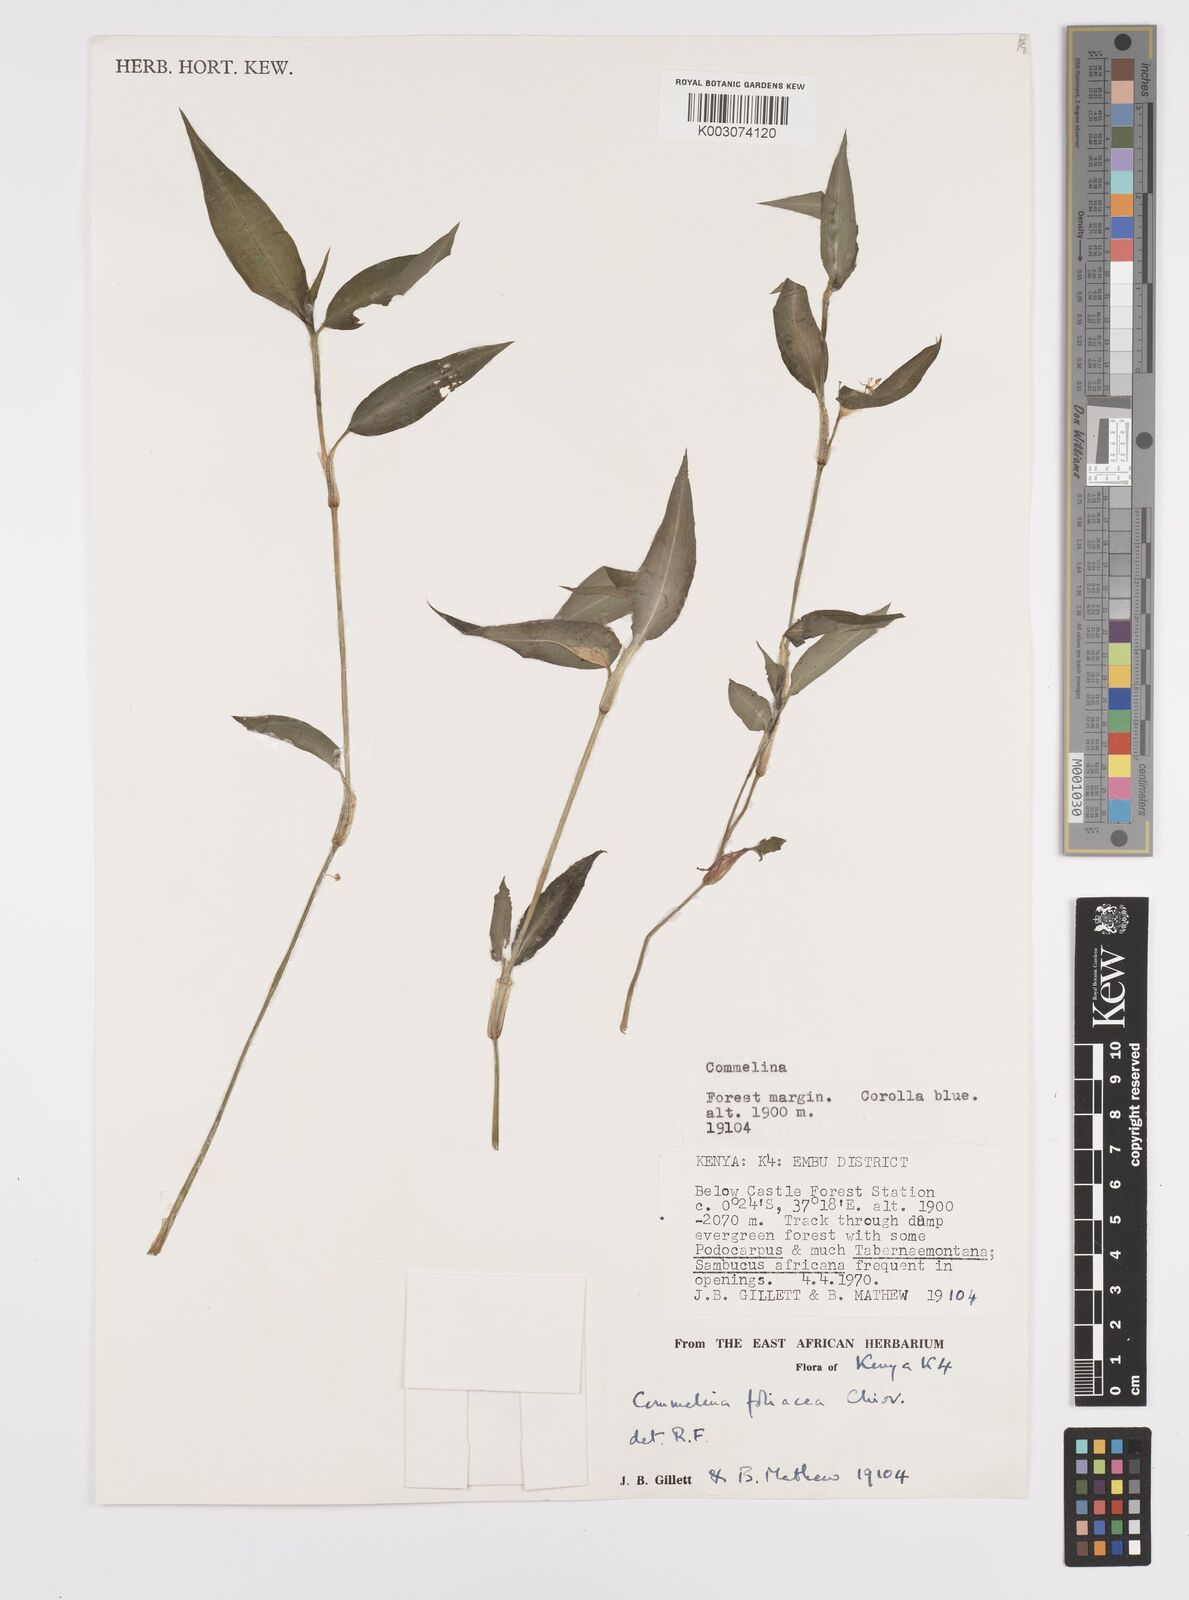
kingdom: Plantae
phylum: Tracheophyta
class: Liliopsida
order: Commelinales
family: Commelinaceae
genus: Commelina
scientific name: Commelina foliacea
